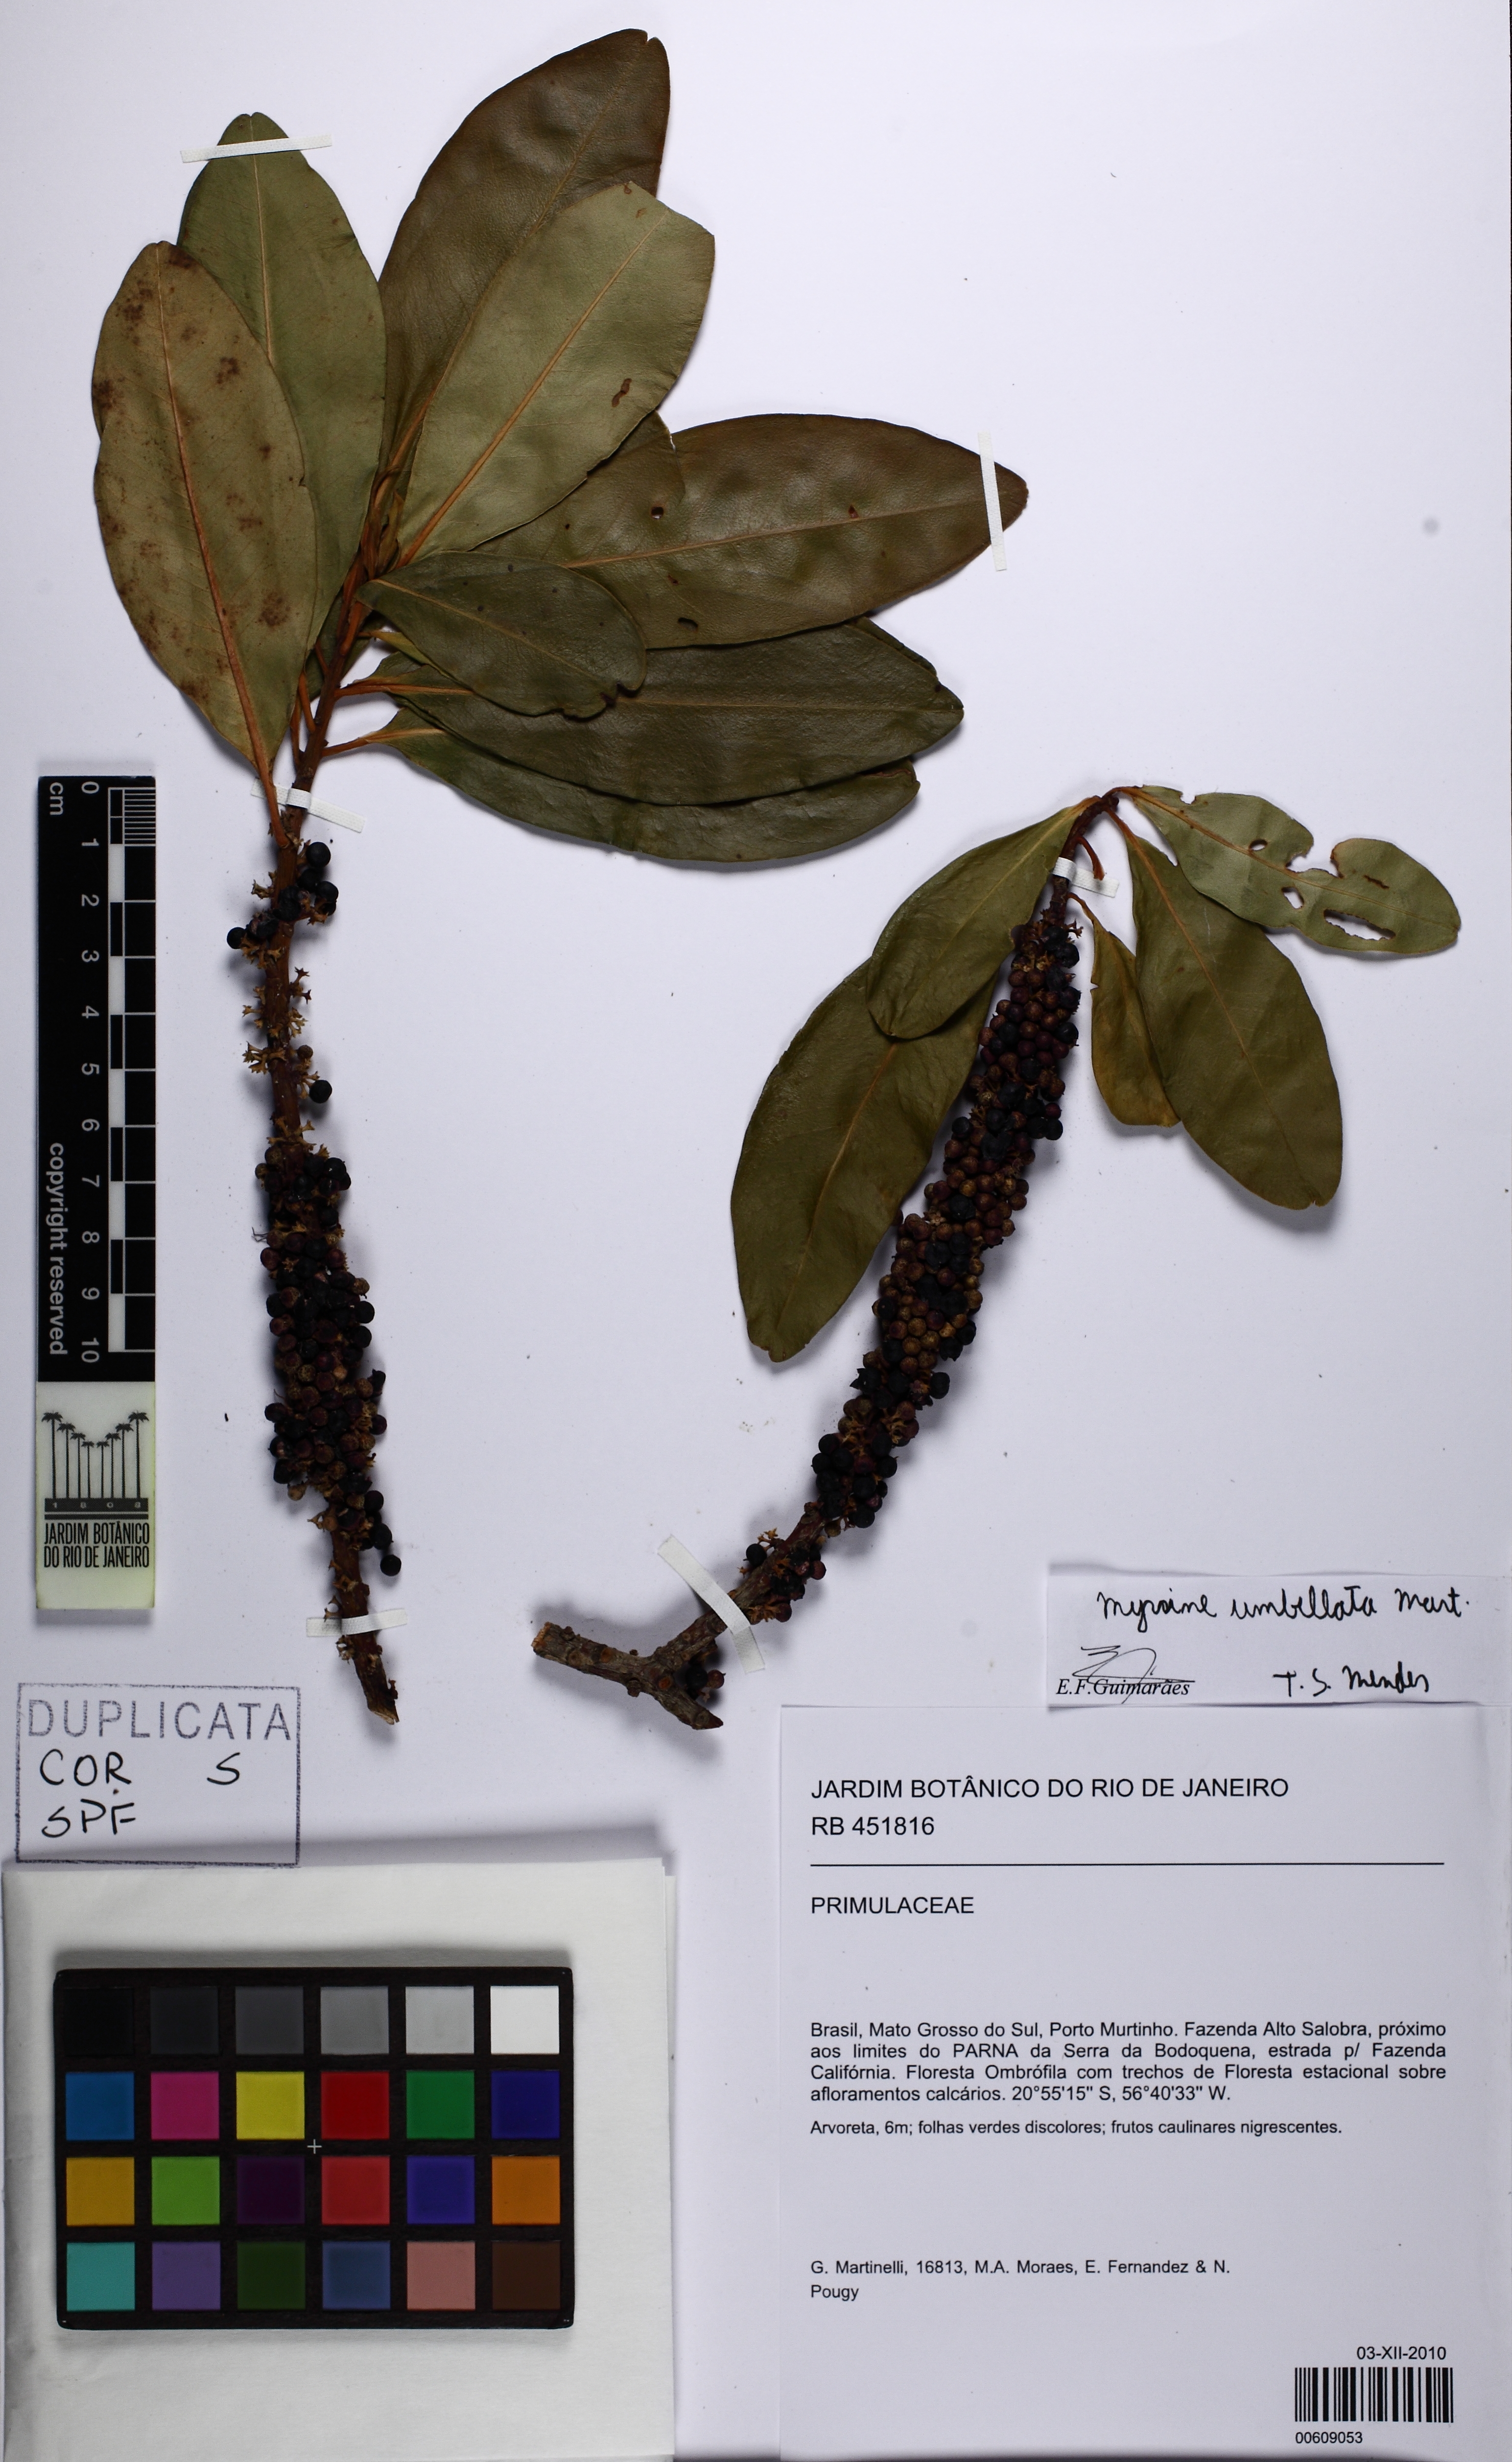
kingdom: Plantae
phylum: Tracheophyta
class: Magnoliopsida
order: Ericales
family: Primulaceae
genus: Myrsine
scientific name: Myrsine umbellata
